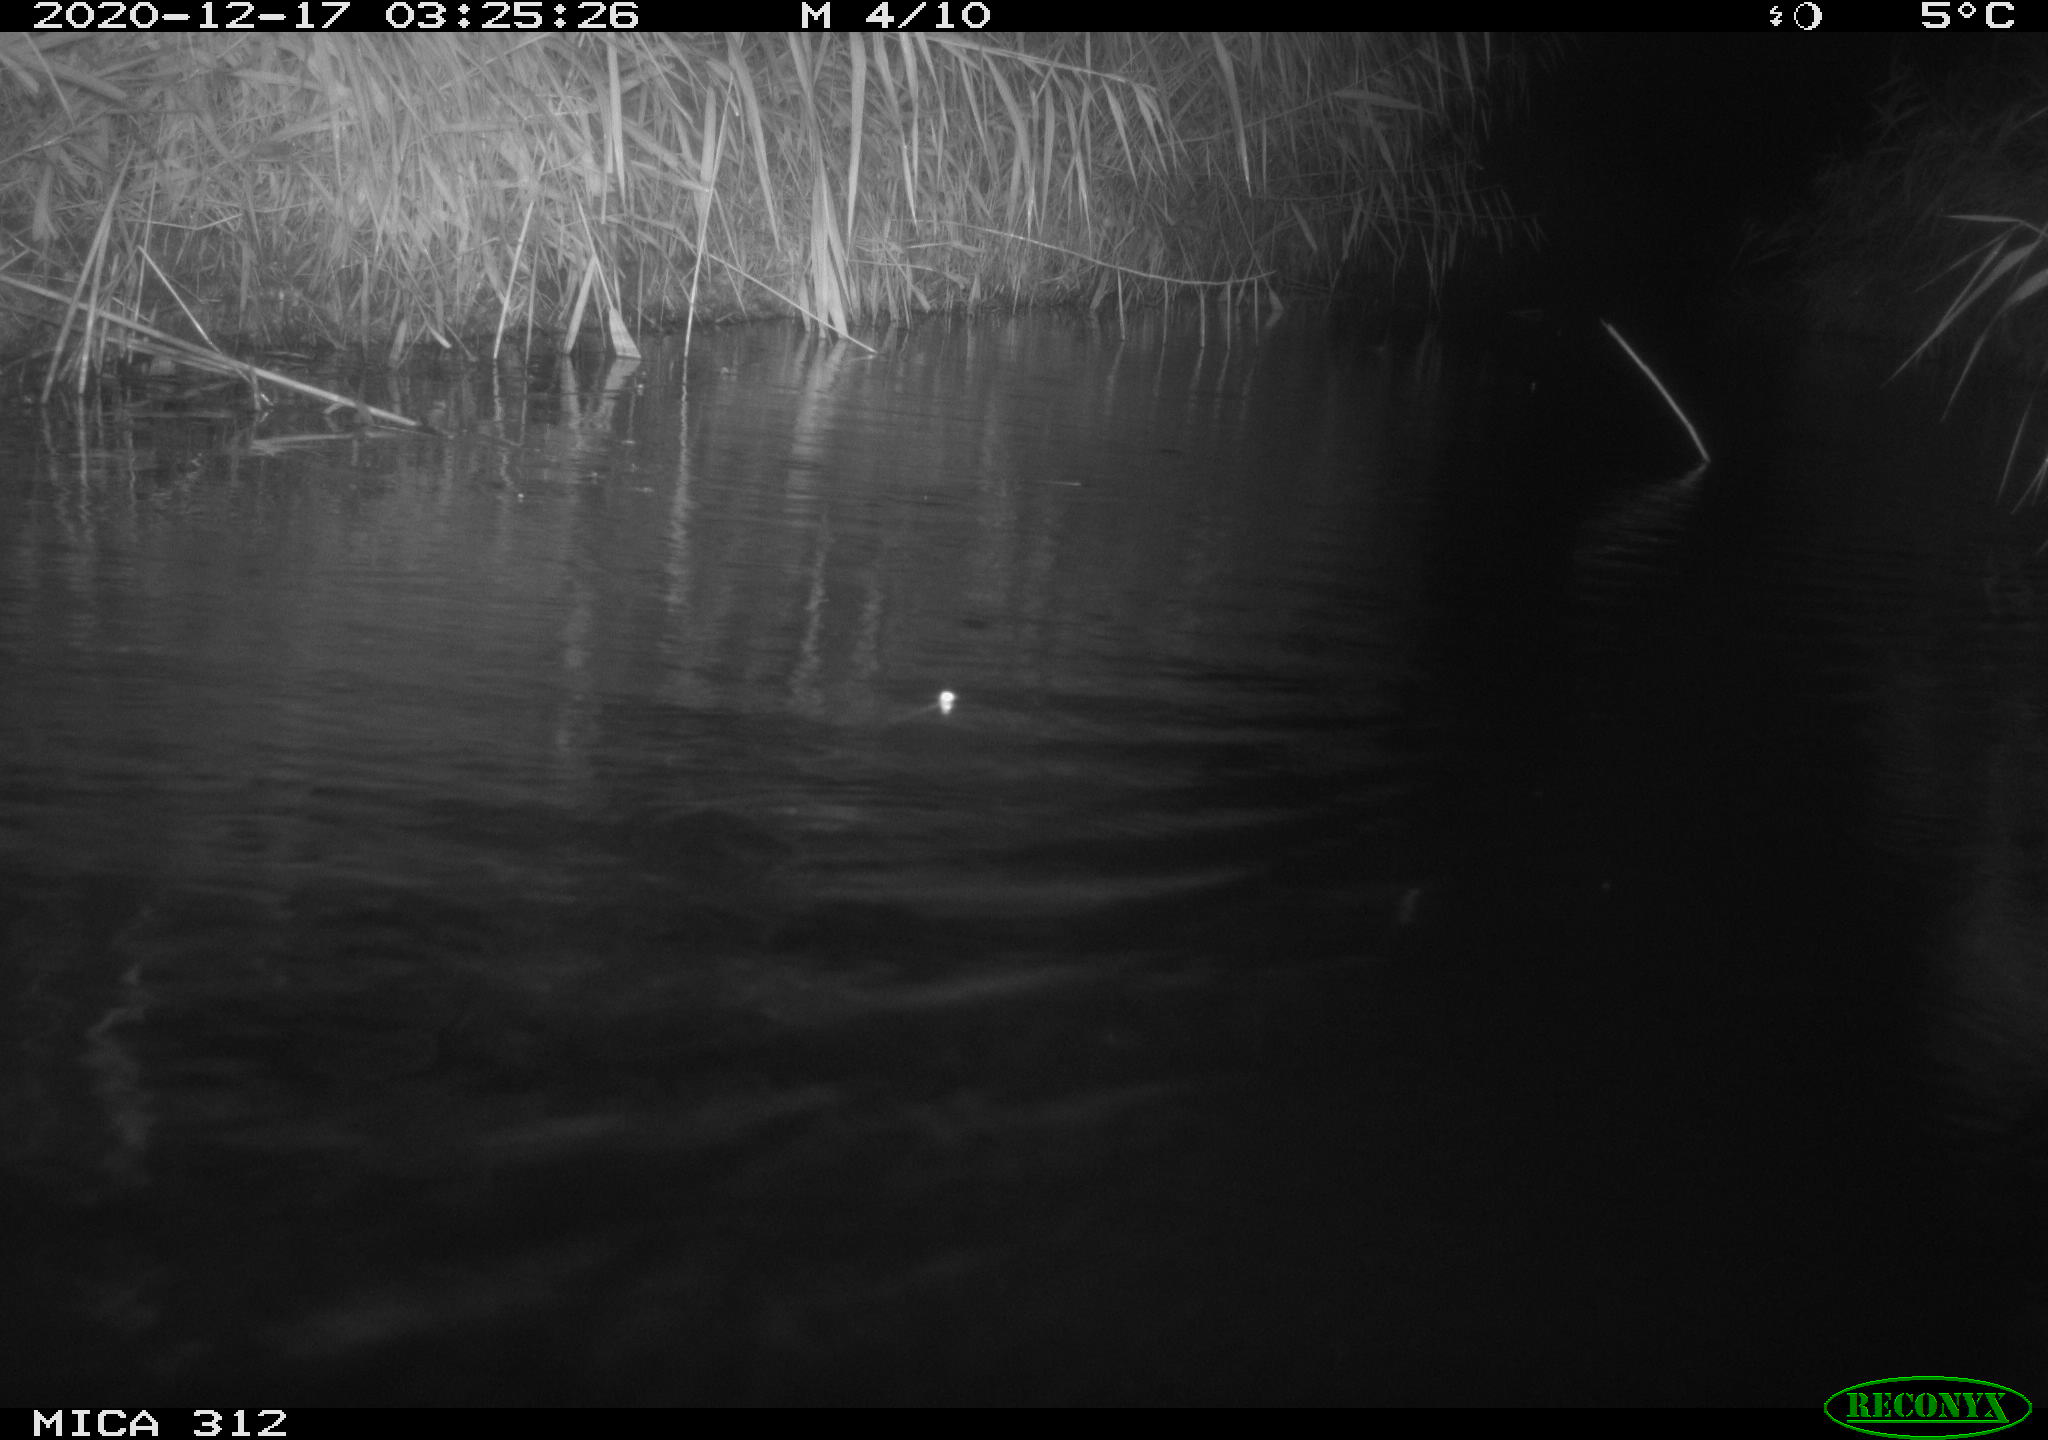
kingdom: Animalia
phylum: Chordata
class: Mammalia
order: Rodentia
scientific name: Rodentia
